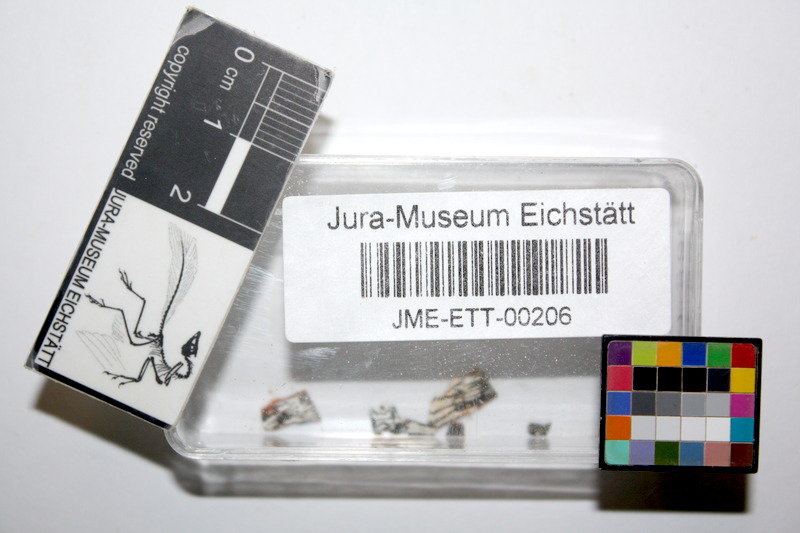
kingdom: Animalia
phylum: Chordata
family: Allothrissopidae
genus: Allothrissops
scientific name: Allothrissops mesogaster
